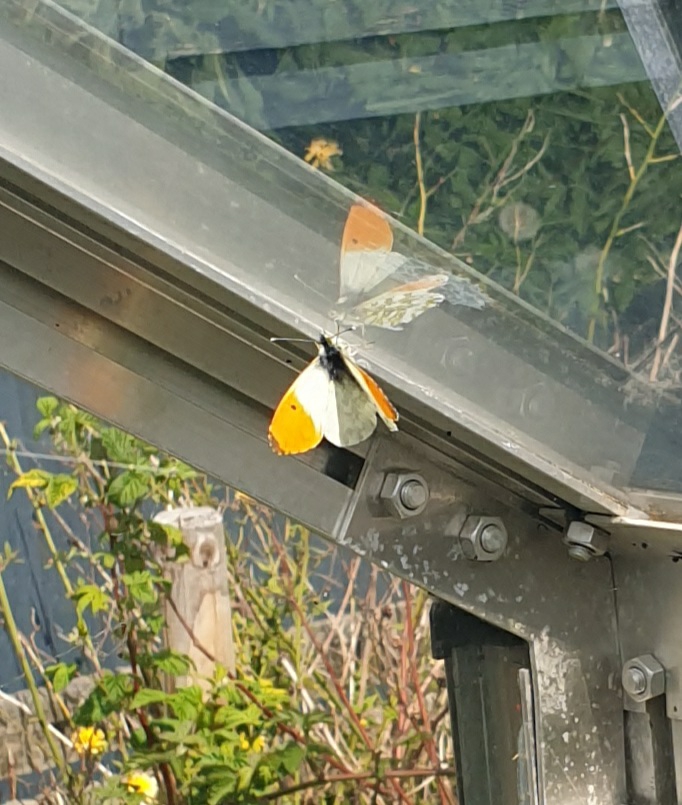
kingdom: Animalia
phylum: Arthropoda
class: Insecta
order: Lepidoptera
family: Pieridae
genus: Anthocharis
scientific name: Anthocharis cardamines
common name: Aurora
